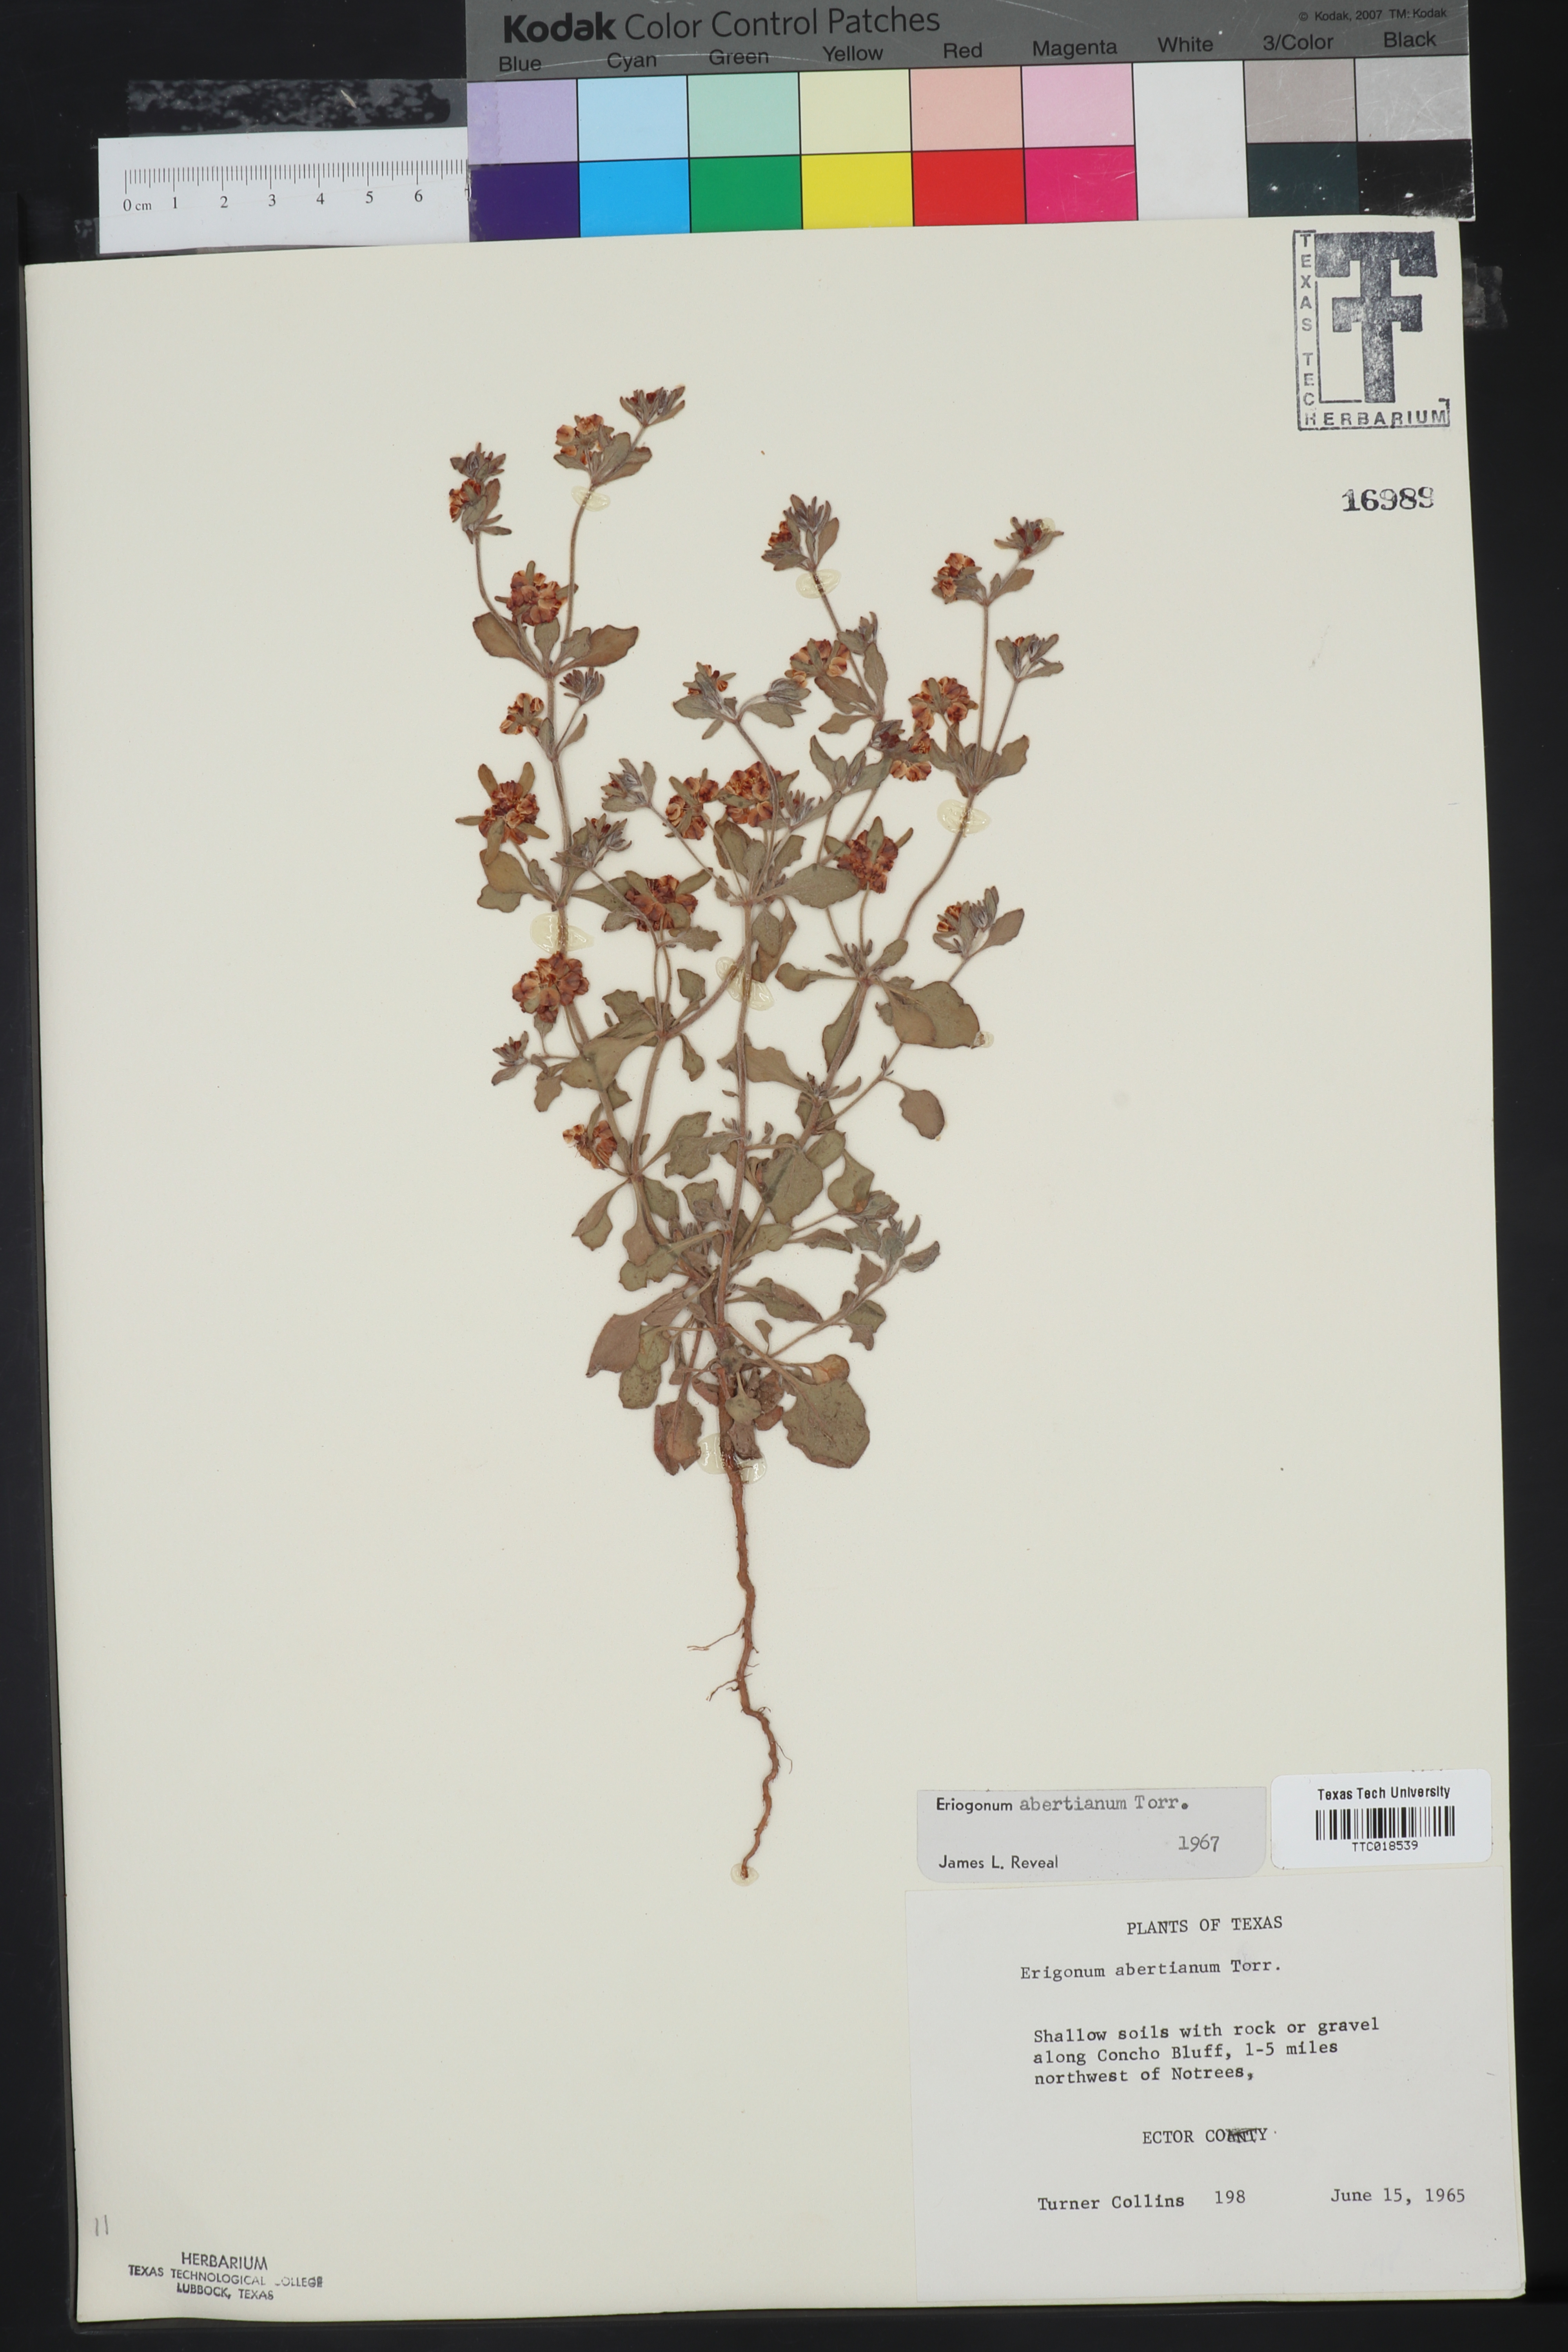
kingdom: Plantae
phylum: Tracheophyta
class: Magnoliopsida
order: Caryophyllales
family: Polygonaceae
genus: Eriogonum
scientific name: Eriogonum abertianum
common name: Abert's wild buckwheat
